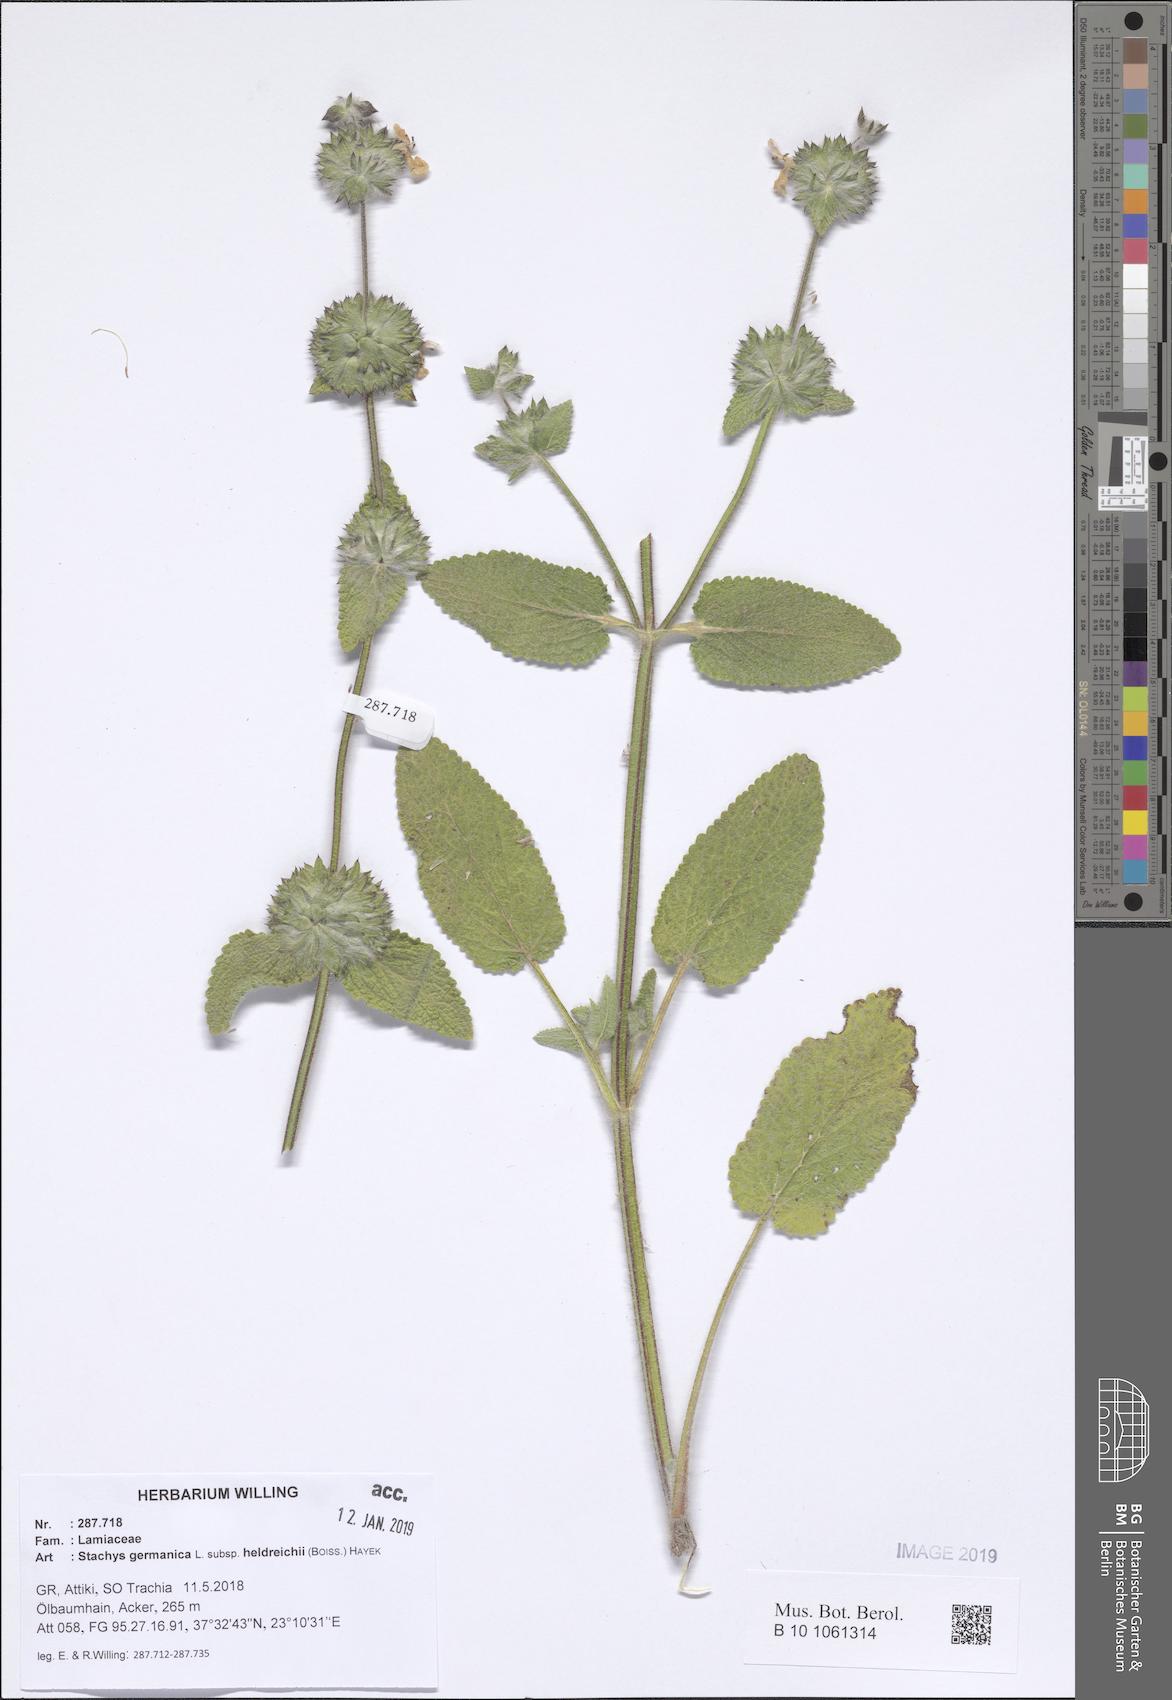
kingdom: Plantae
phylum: Tracheophyta
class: Magnoliopsida
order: Lamiales
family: Lamiaceae
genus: Stachys
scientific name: Stachys germanica
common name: Downy woundwort
